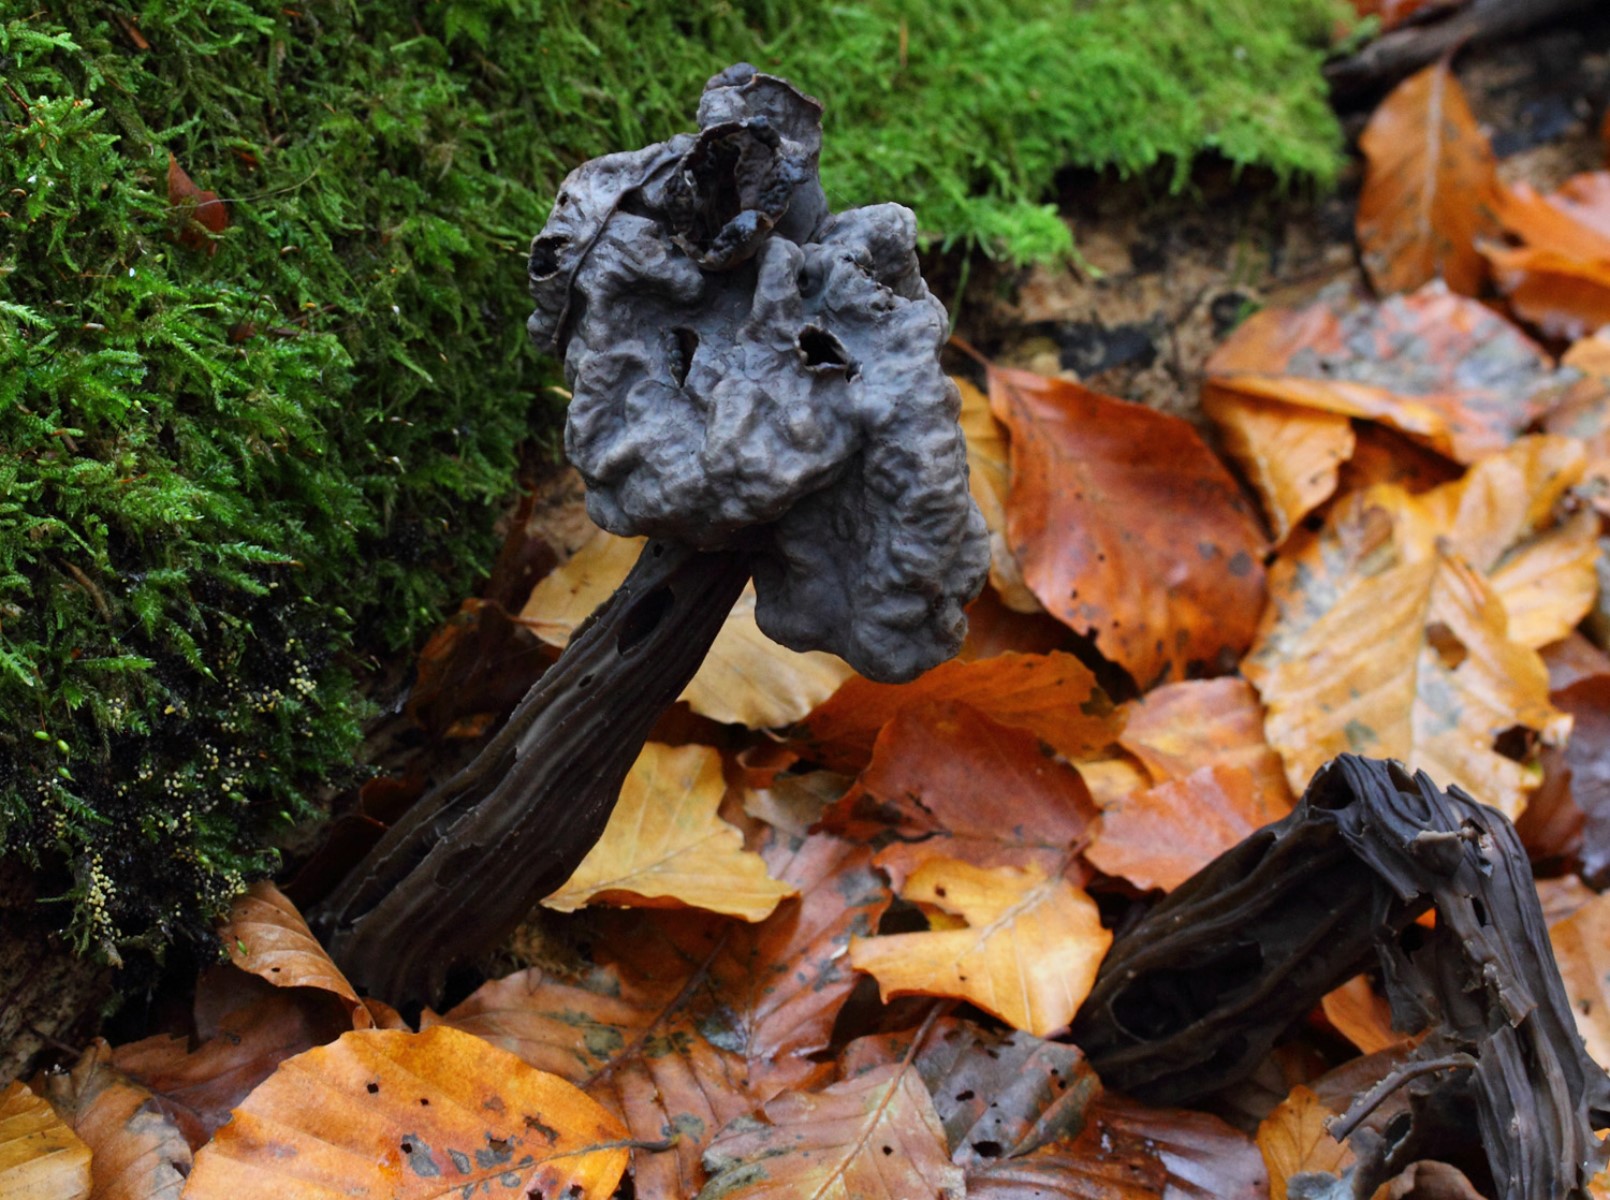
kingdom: Fungi
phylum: Ascomycota
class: Pezizomycetes
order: Pezizales
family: Helvellaceae
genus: Helvella
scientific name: Helvella lacunosa
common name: grubet foldhat
